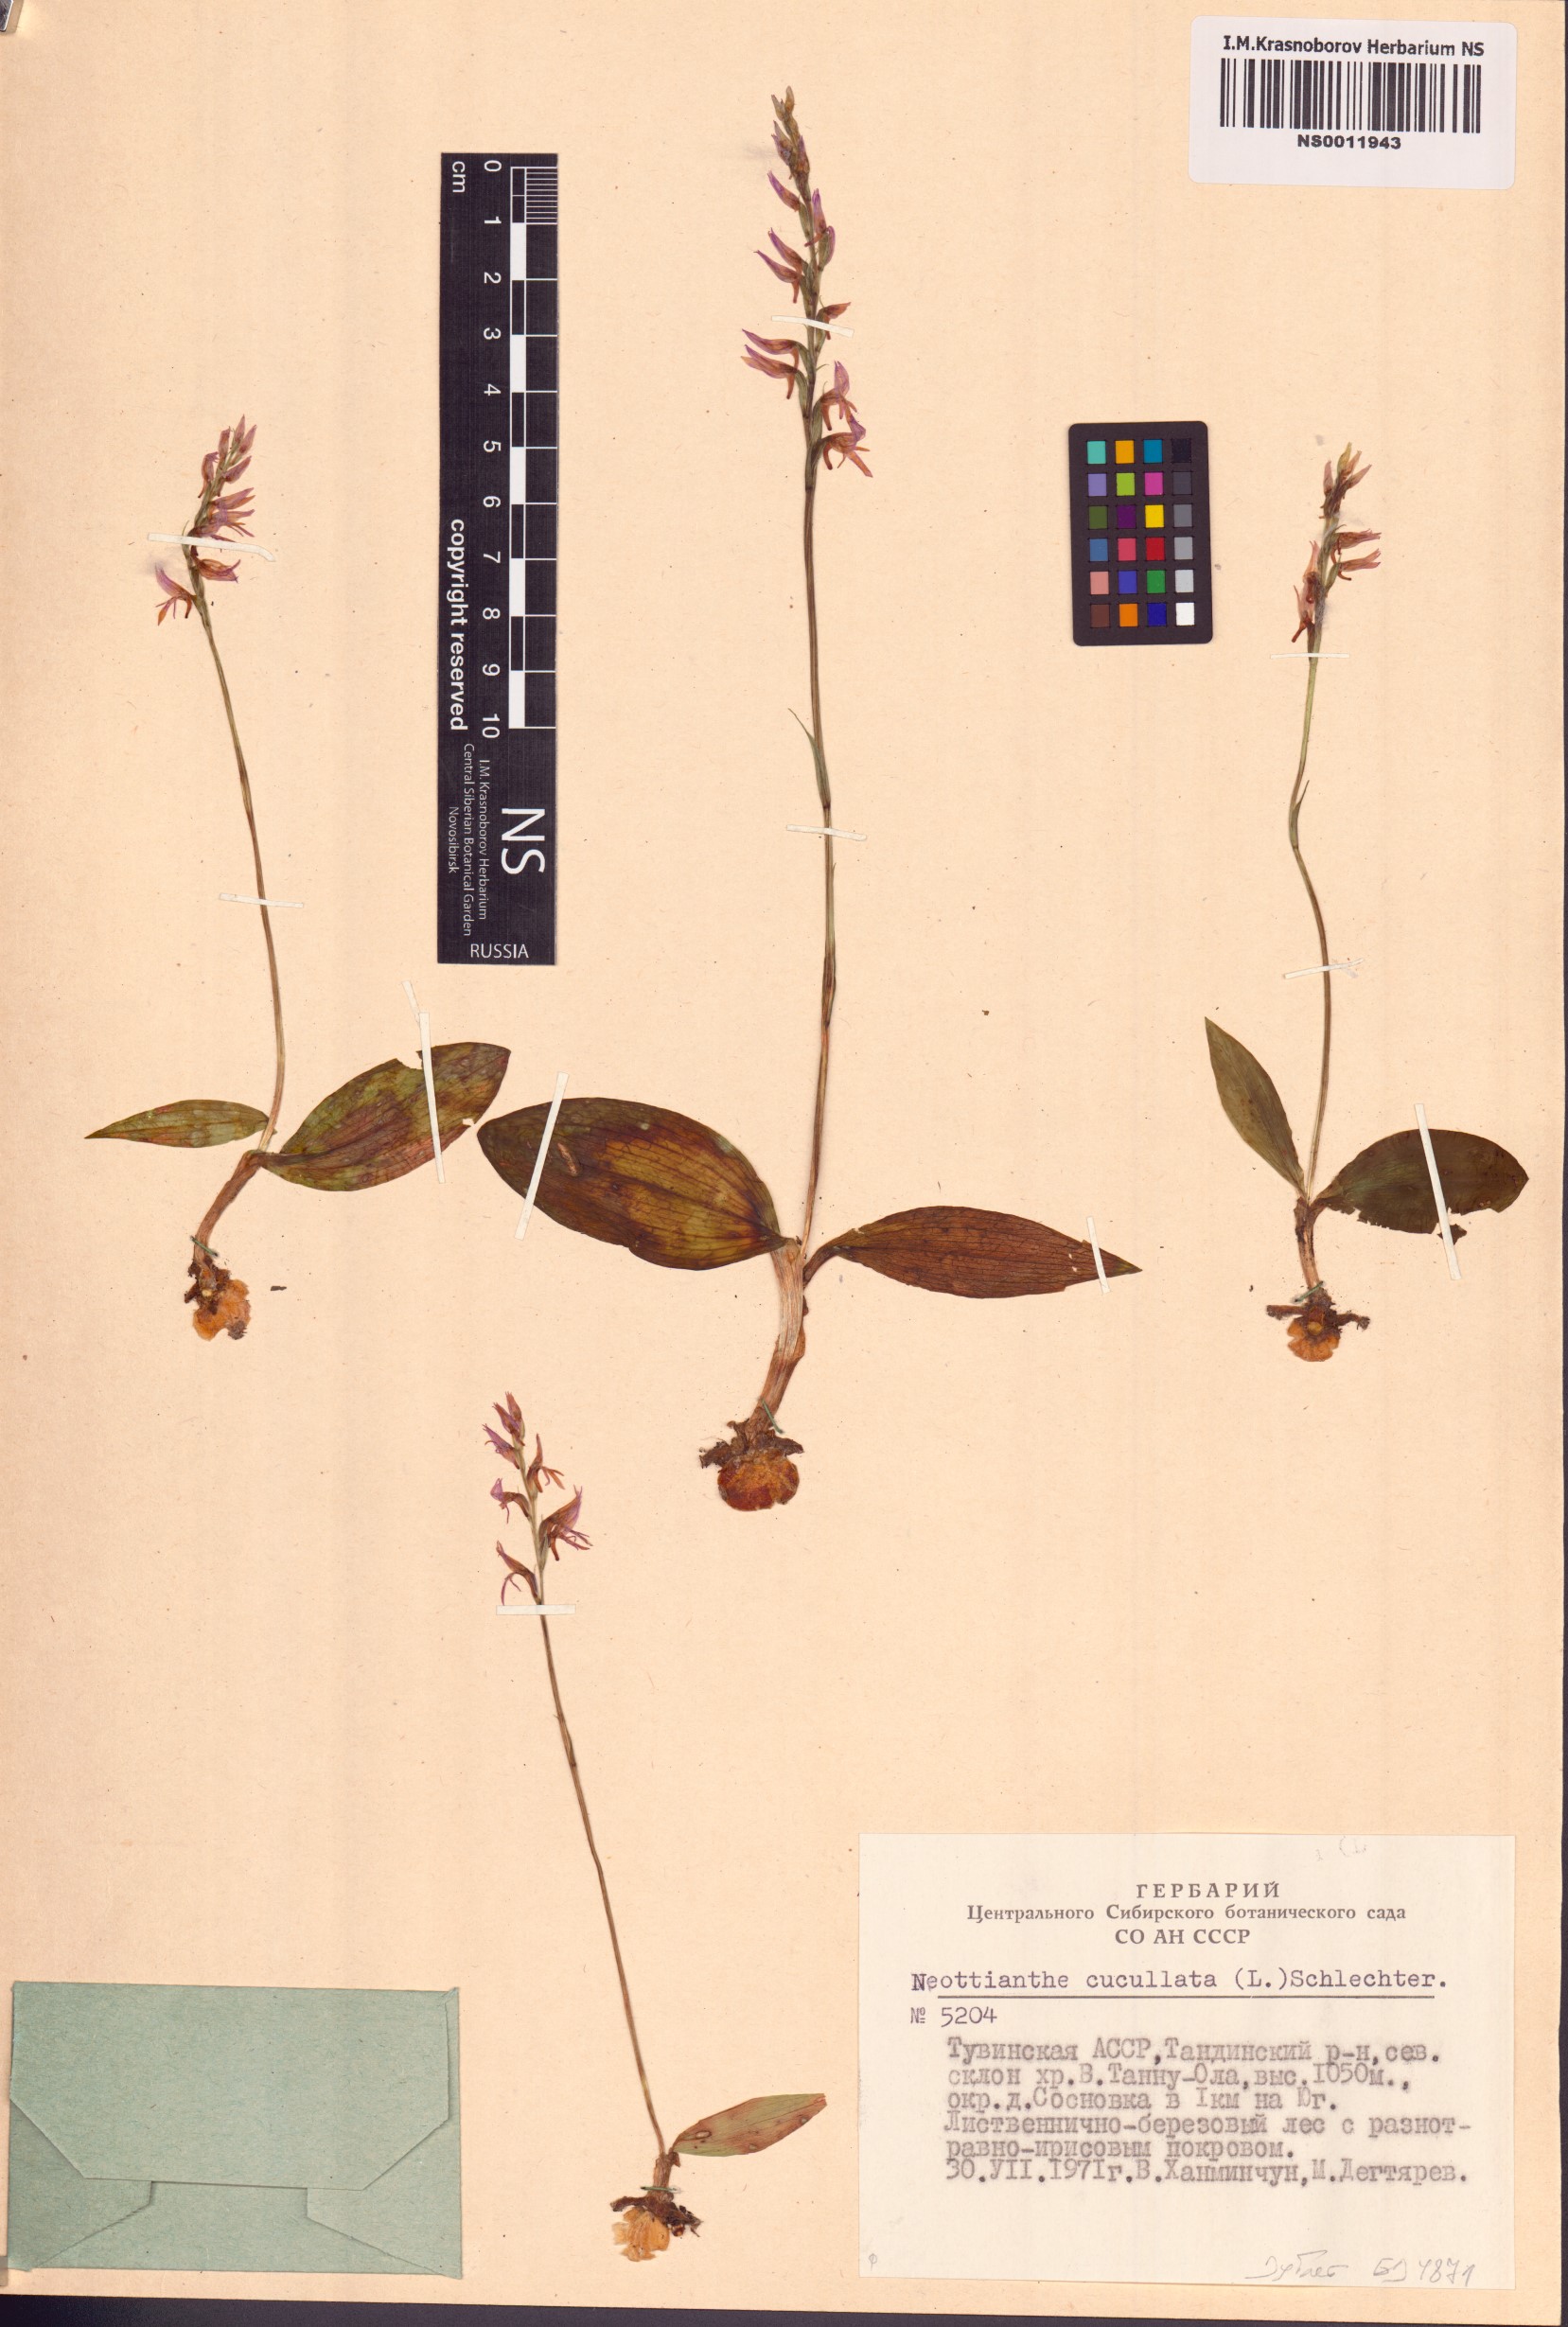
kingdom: Plantae
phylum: Tracheophyta
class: Liliopsida
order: Asparagales
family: Orchidaceae
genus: Hemipilia
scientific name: Hemipilia cucullata
